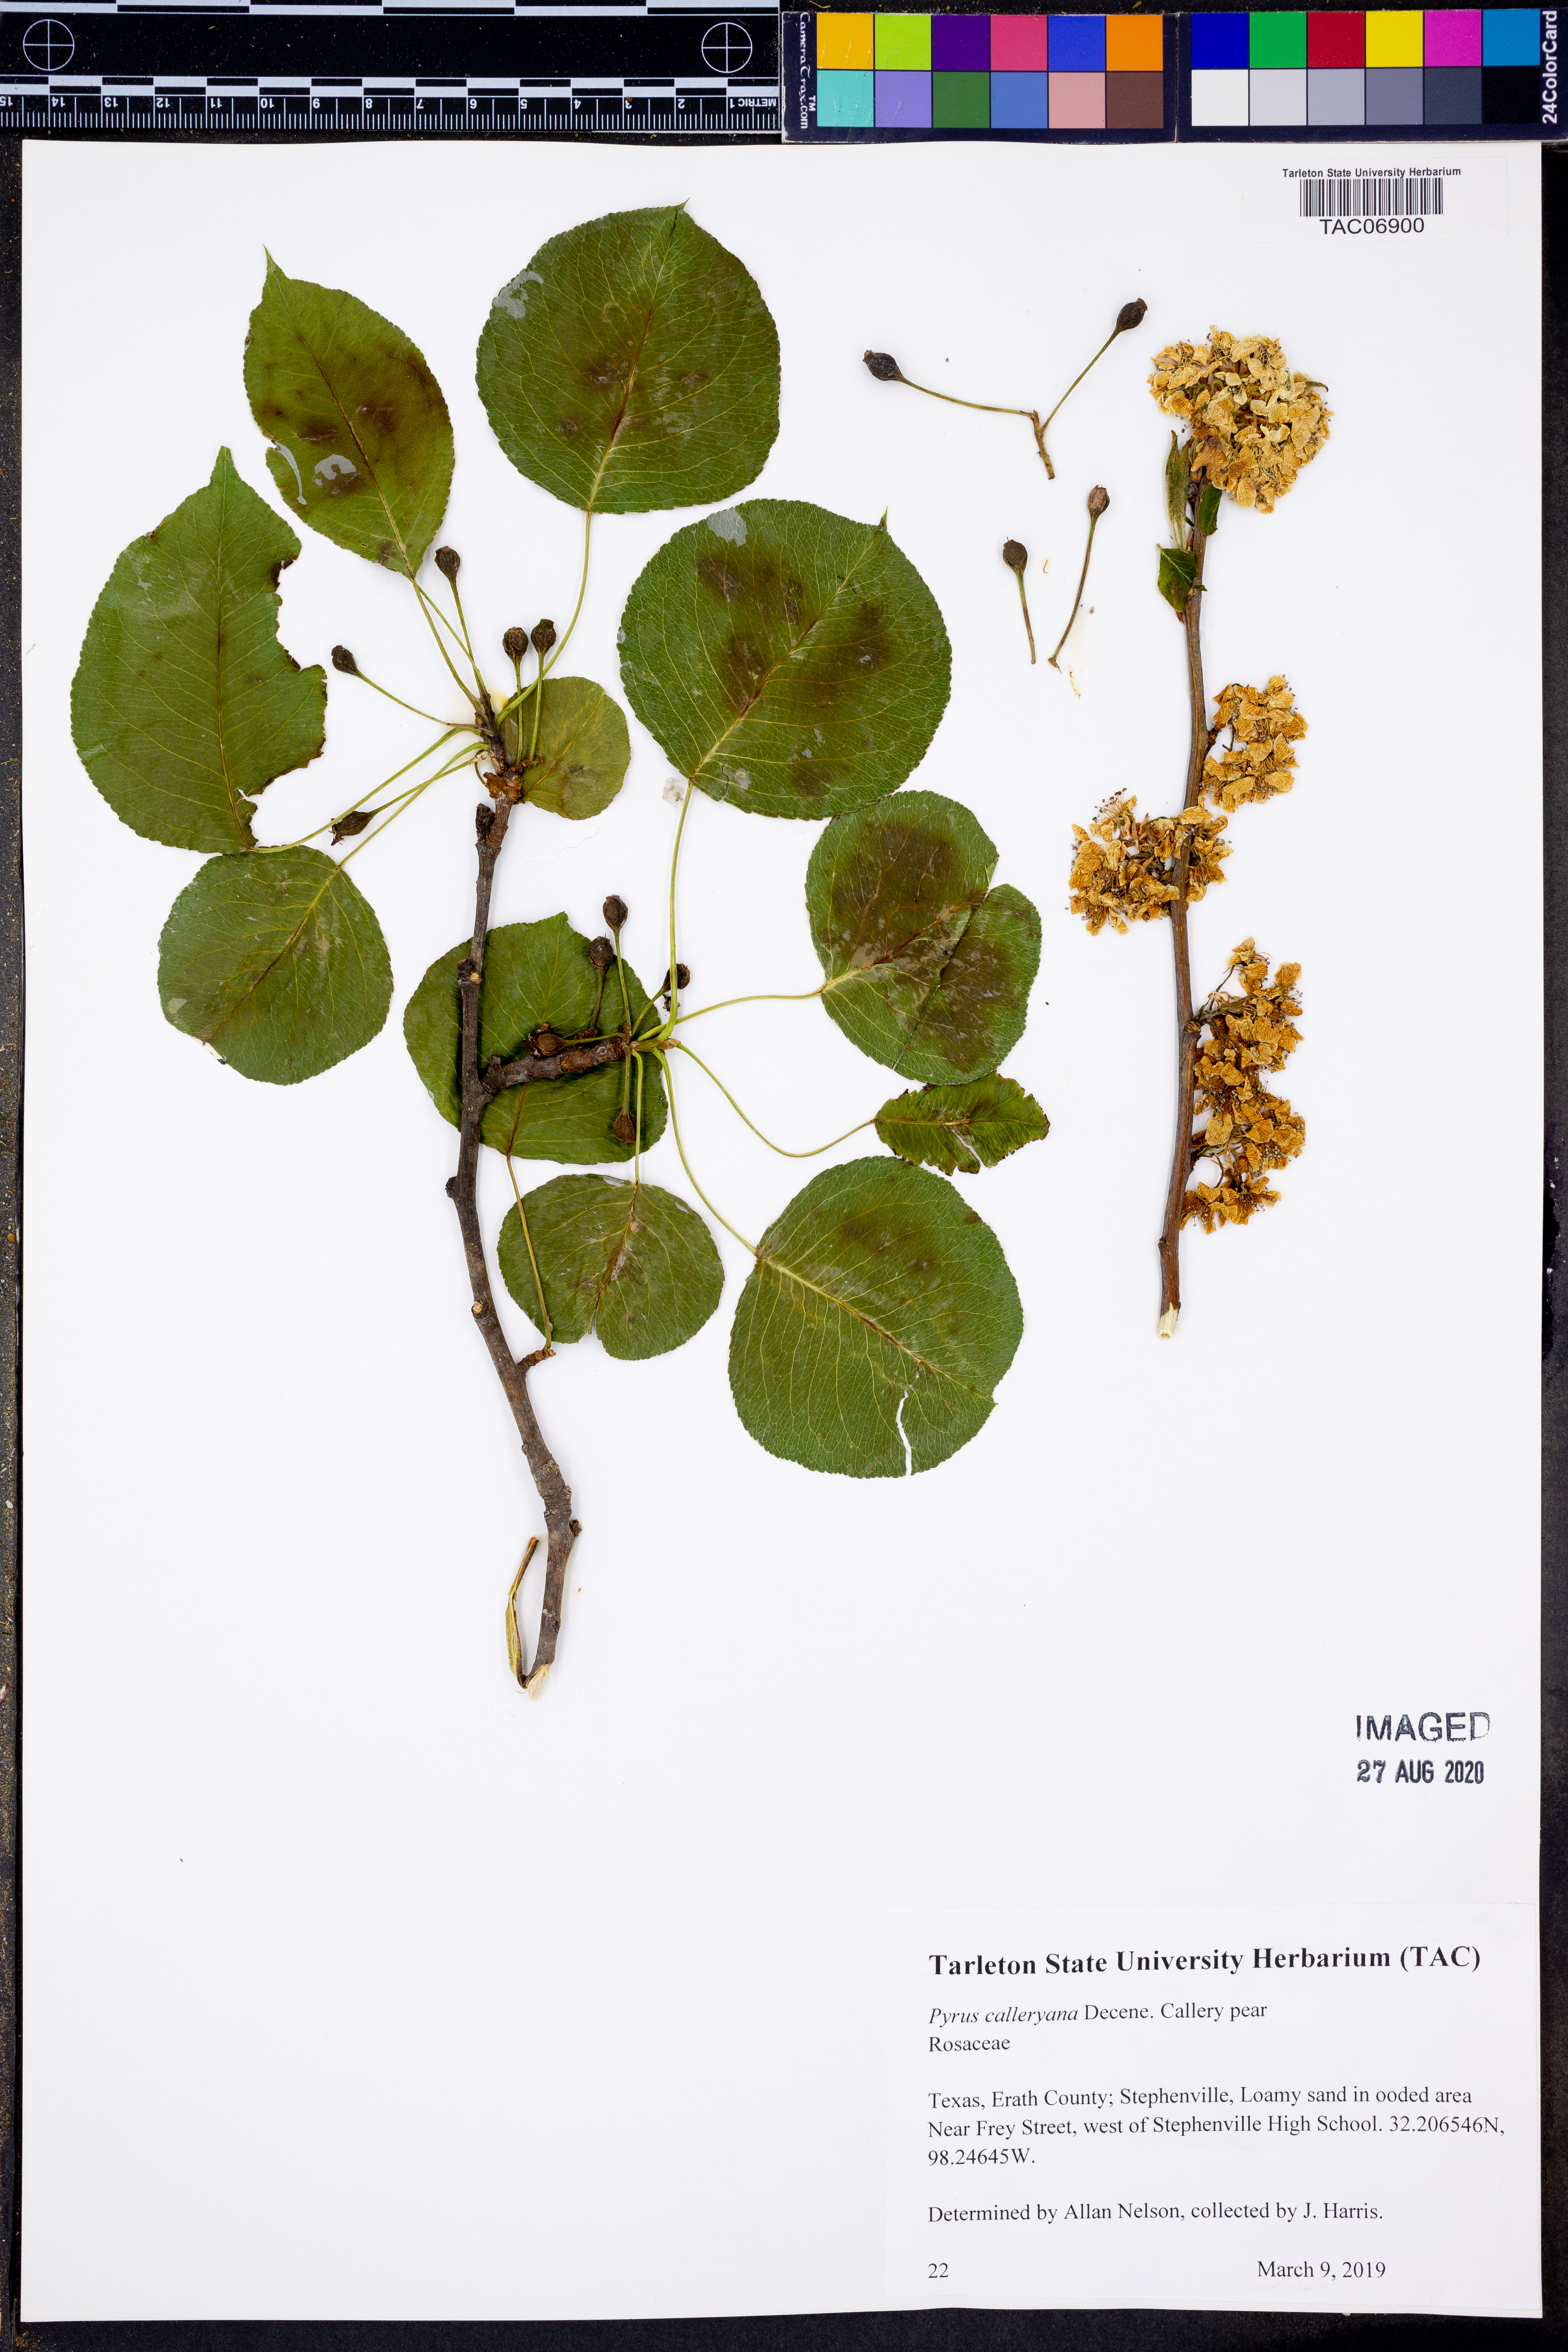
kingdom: Plantae
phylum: Tracheophyta
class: Magnoliopsida
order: Rosales
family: Rosaceae
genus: Pyrus
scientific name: Pyrus calleryana
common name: Callery pear
